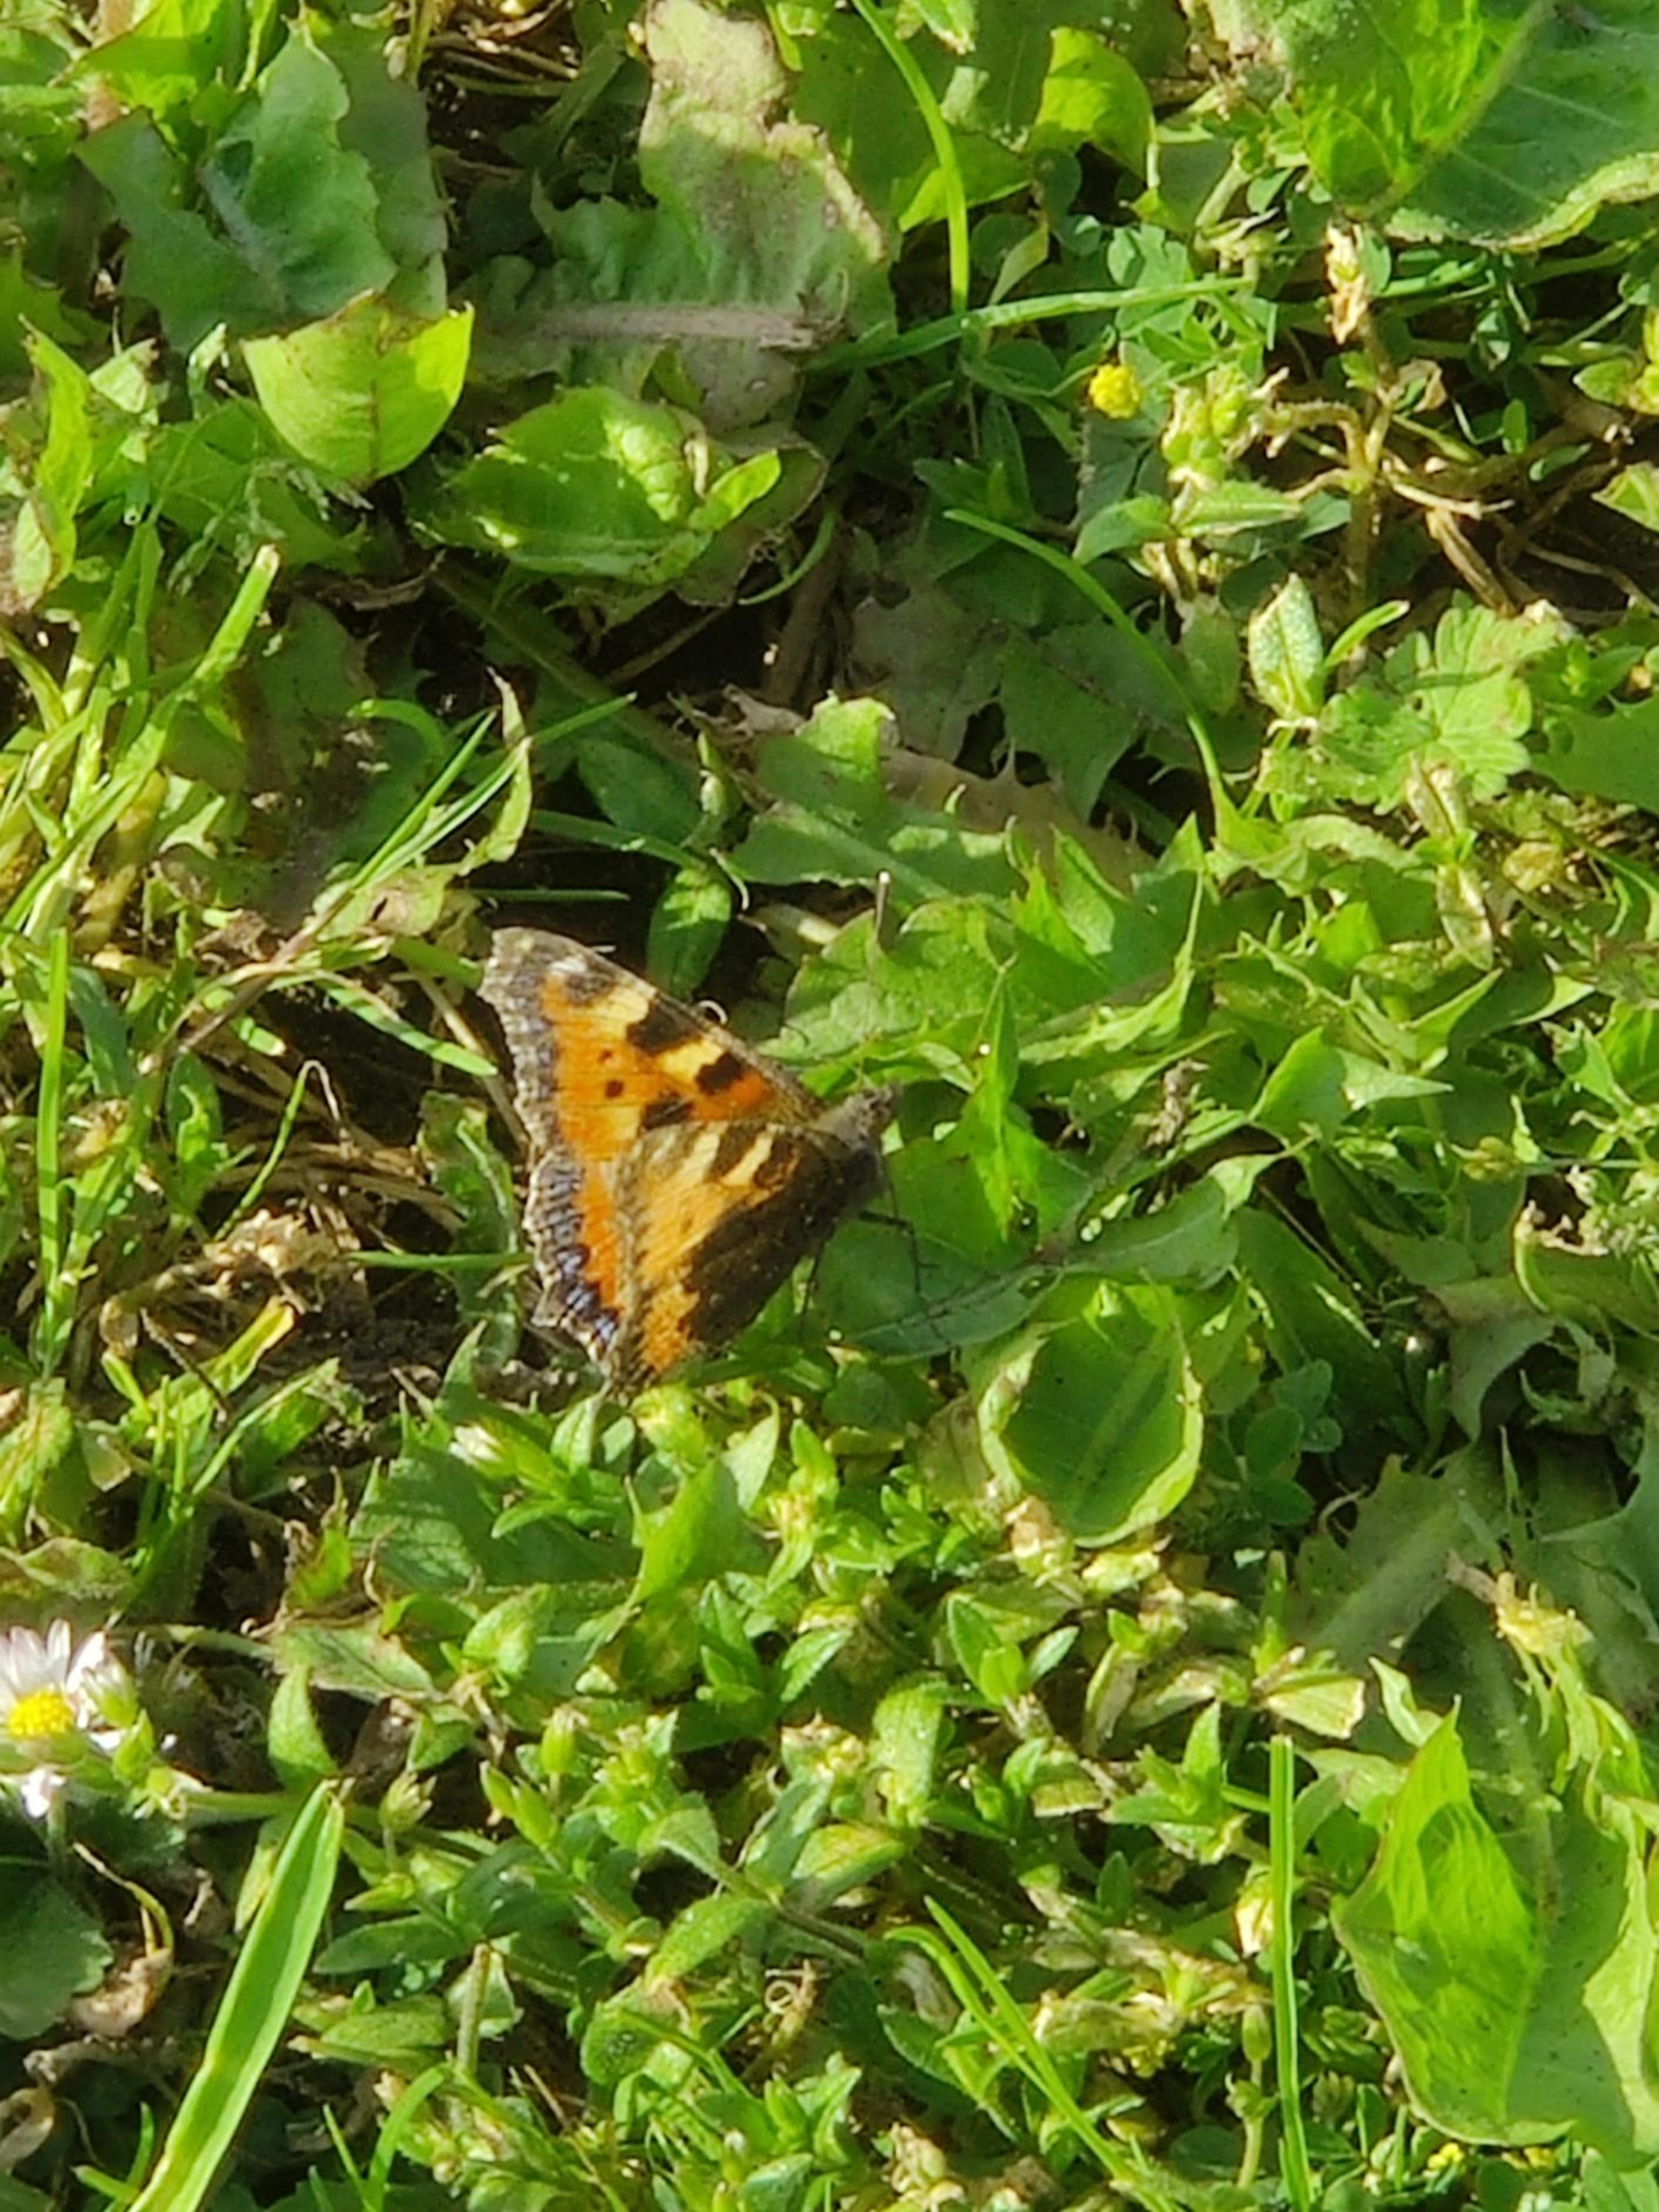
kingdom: Animalia
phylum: Arthropoda
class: Insecta
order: Lepidoptera
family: Nymphalidae
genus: Aglais
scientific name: Aglais urticae
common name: Nældens takvinge
